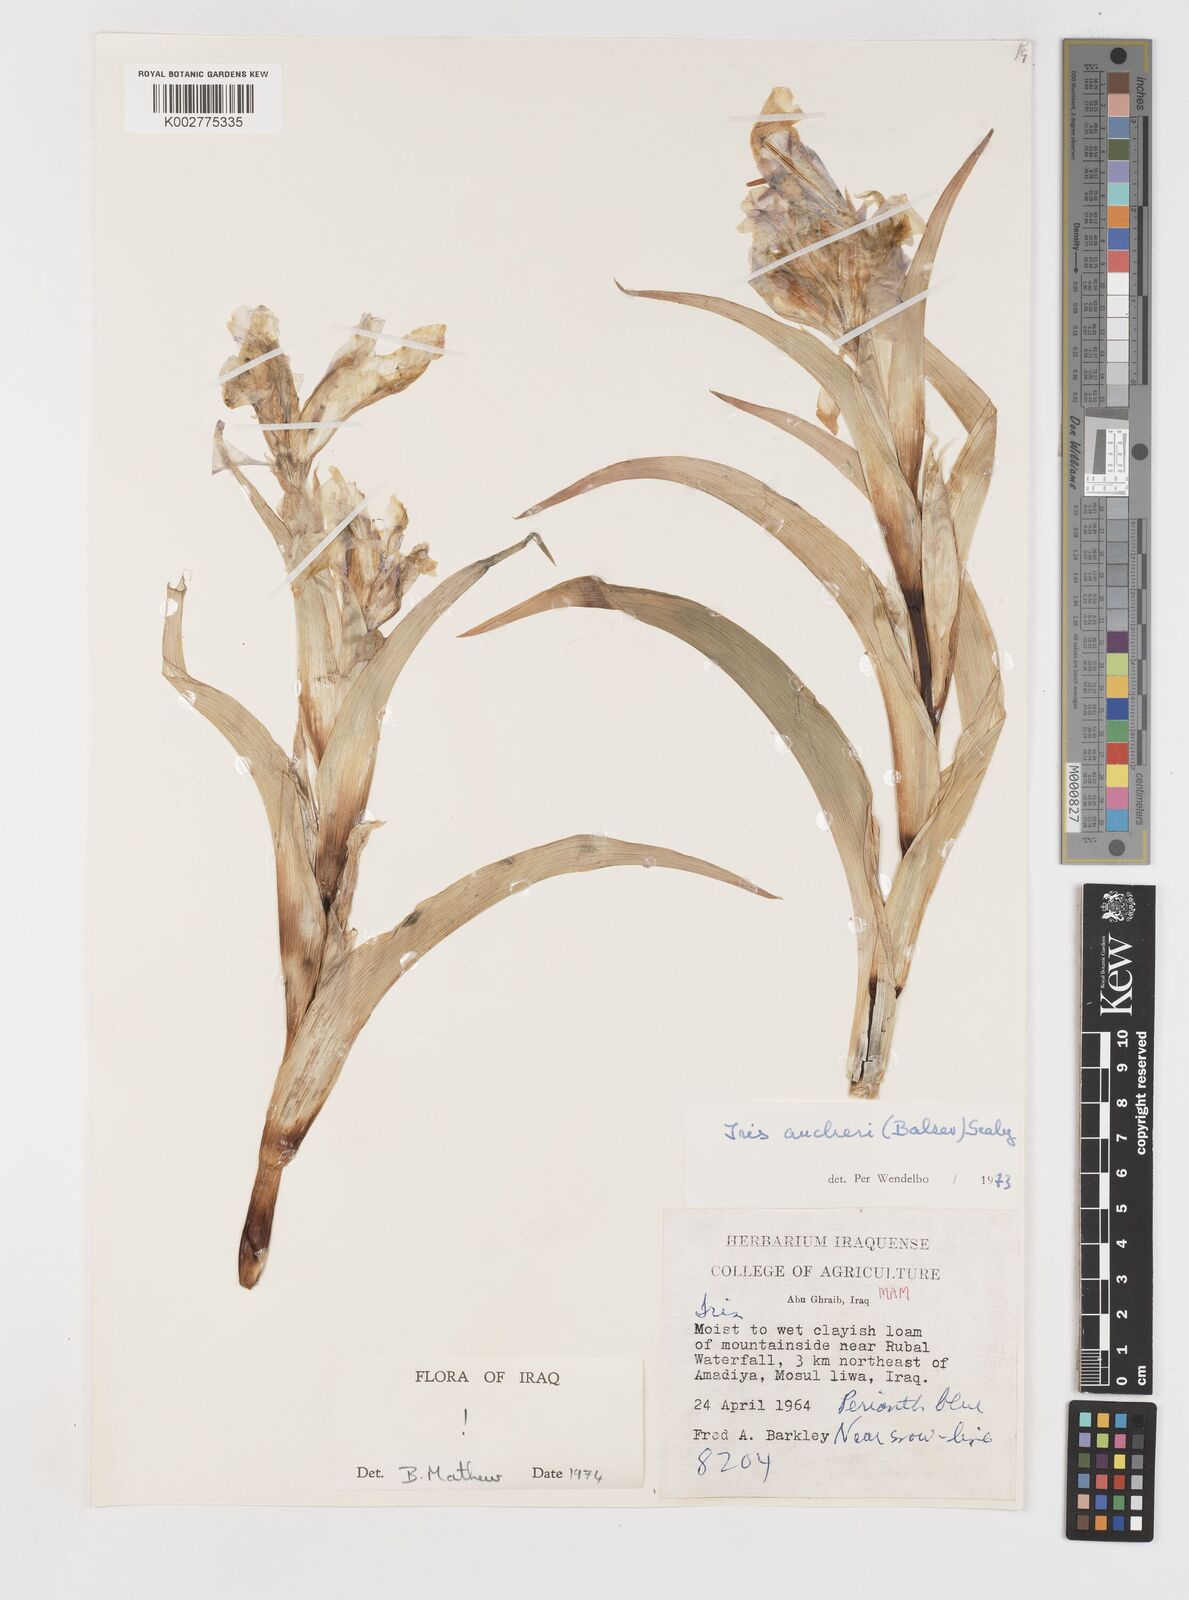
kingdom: Plantae
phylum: Tracheophyta
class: Liliopsida
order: Asparagales
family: Iridaceae
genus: Iris
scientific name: Iris aucheri
